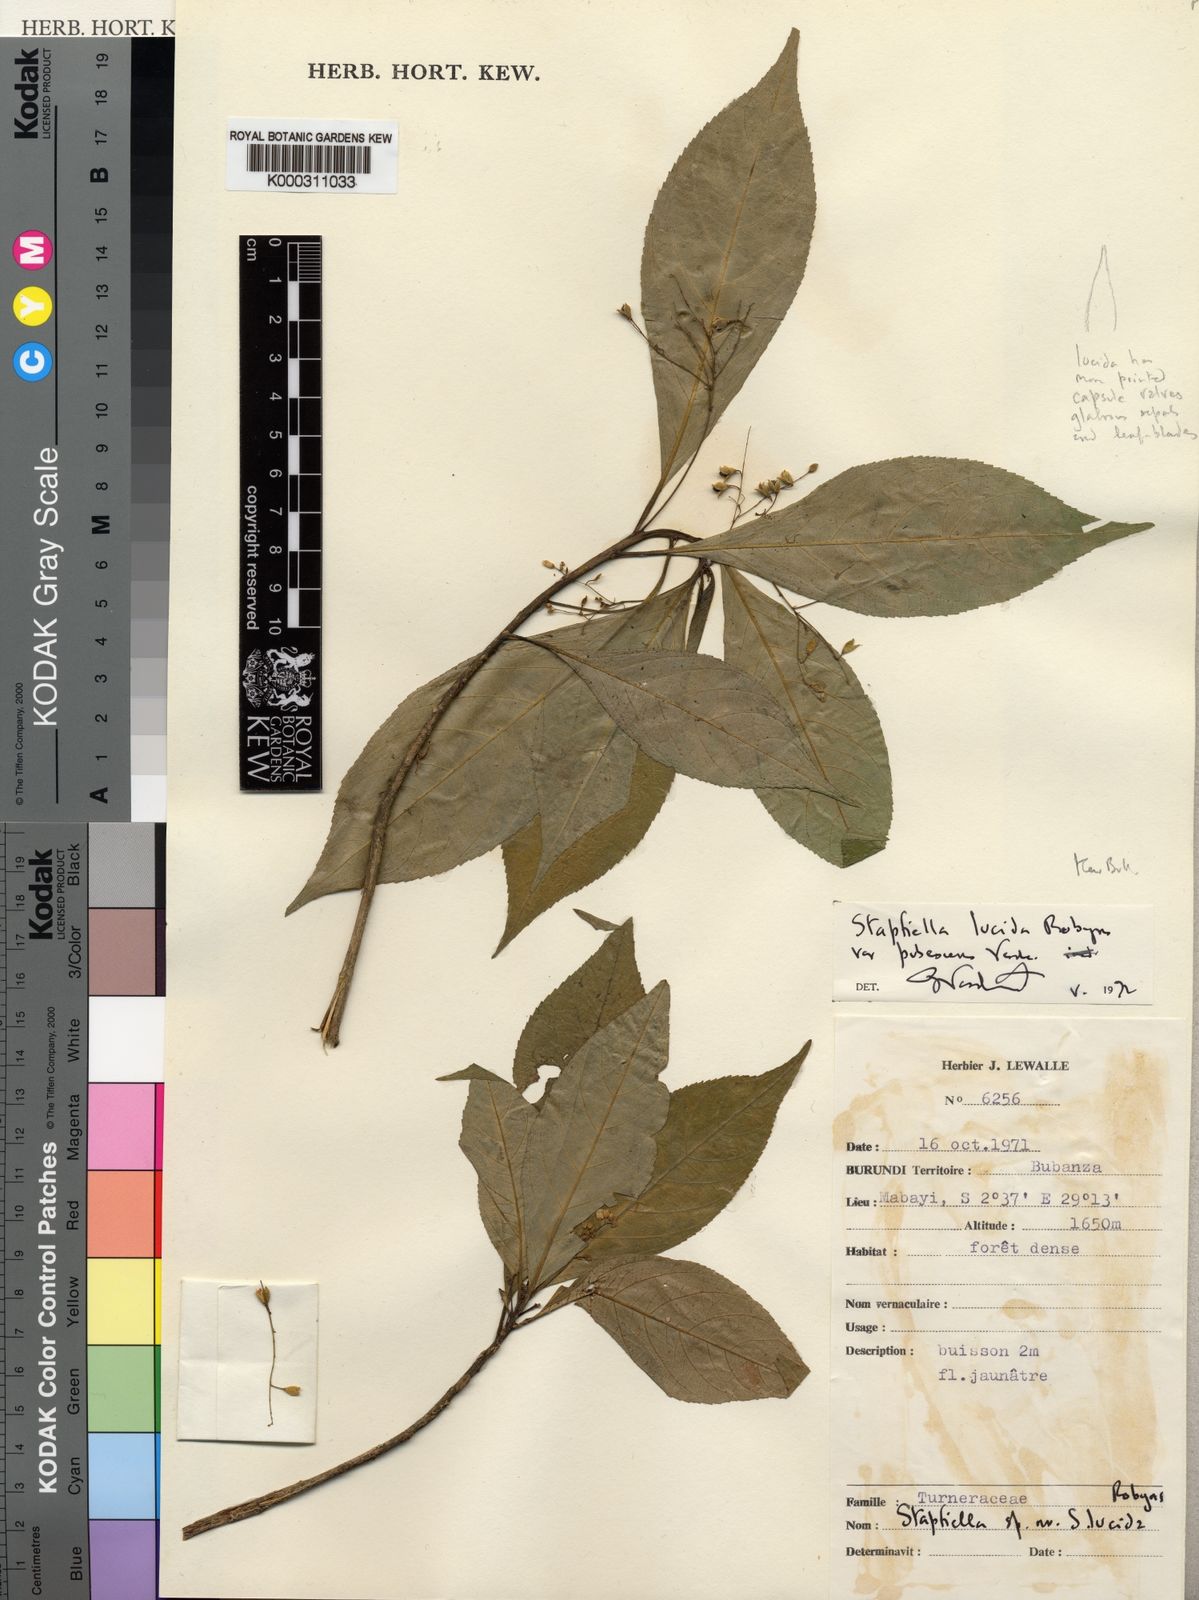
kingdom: Plantae
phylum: Tracheophyta
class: Magnoliopsida
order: Malpighiales
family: Turneraceae
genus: Stapfiella
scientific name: Stapfiella
